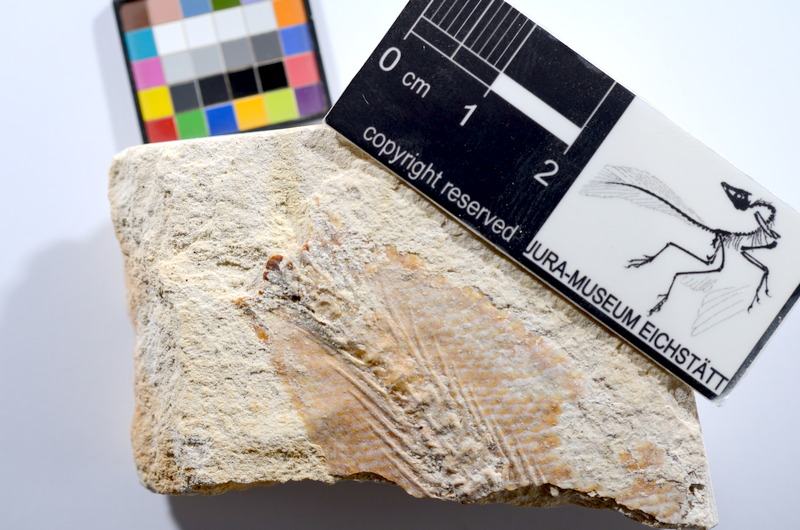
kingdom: Animalia
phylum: Chordata
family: Ascalaboidae
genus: Tharsis
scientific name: Tharsis dubius
